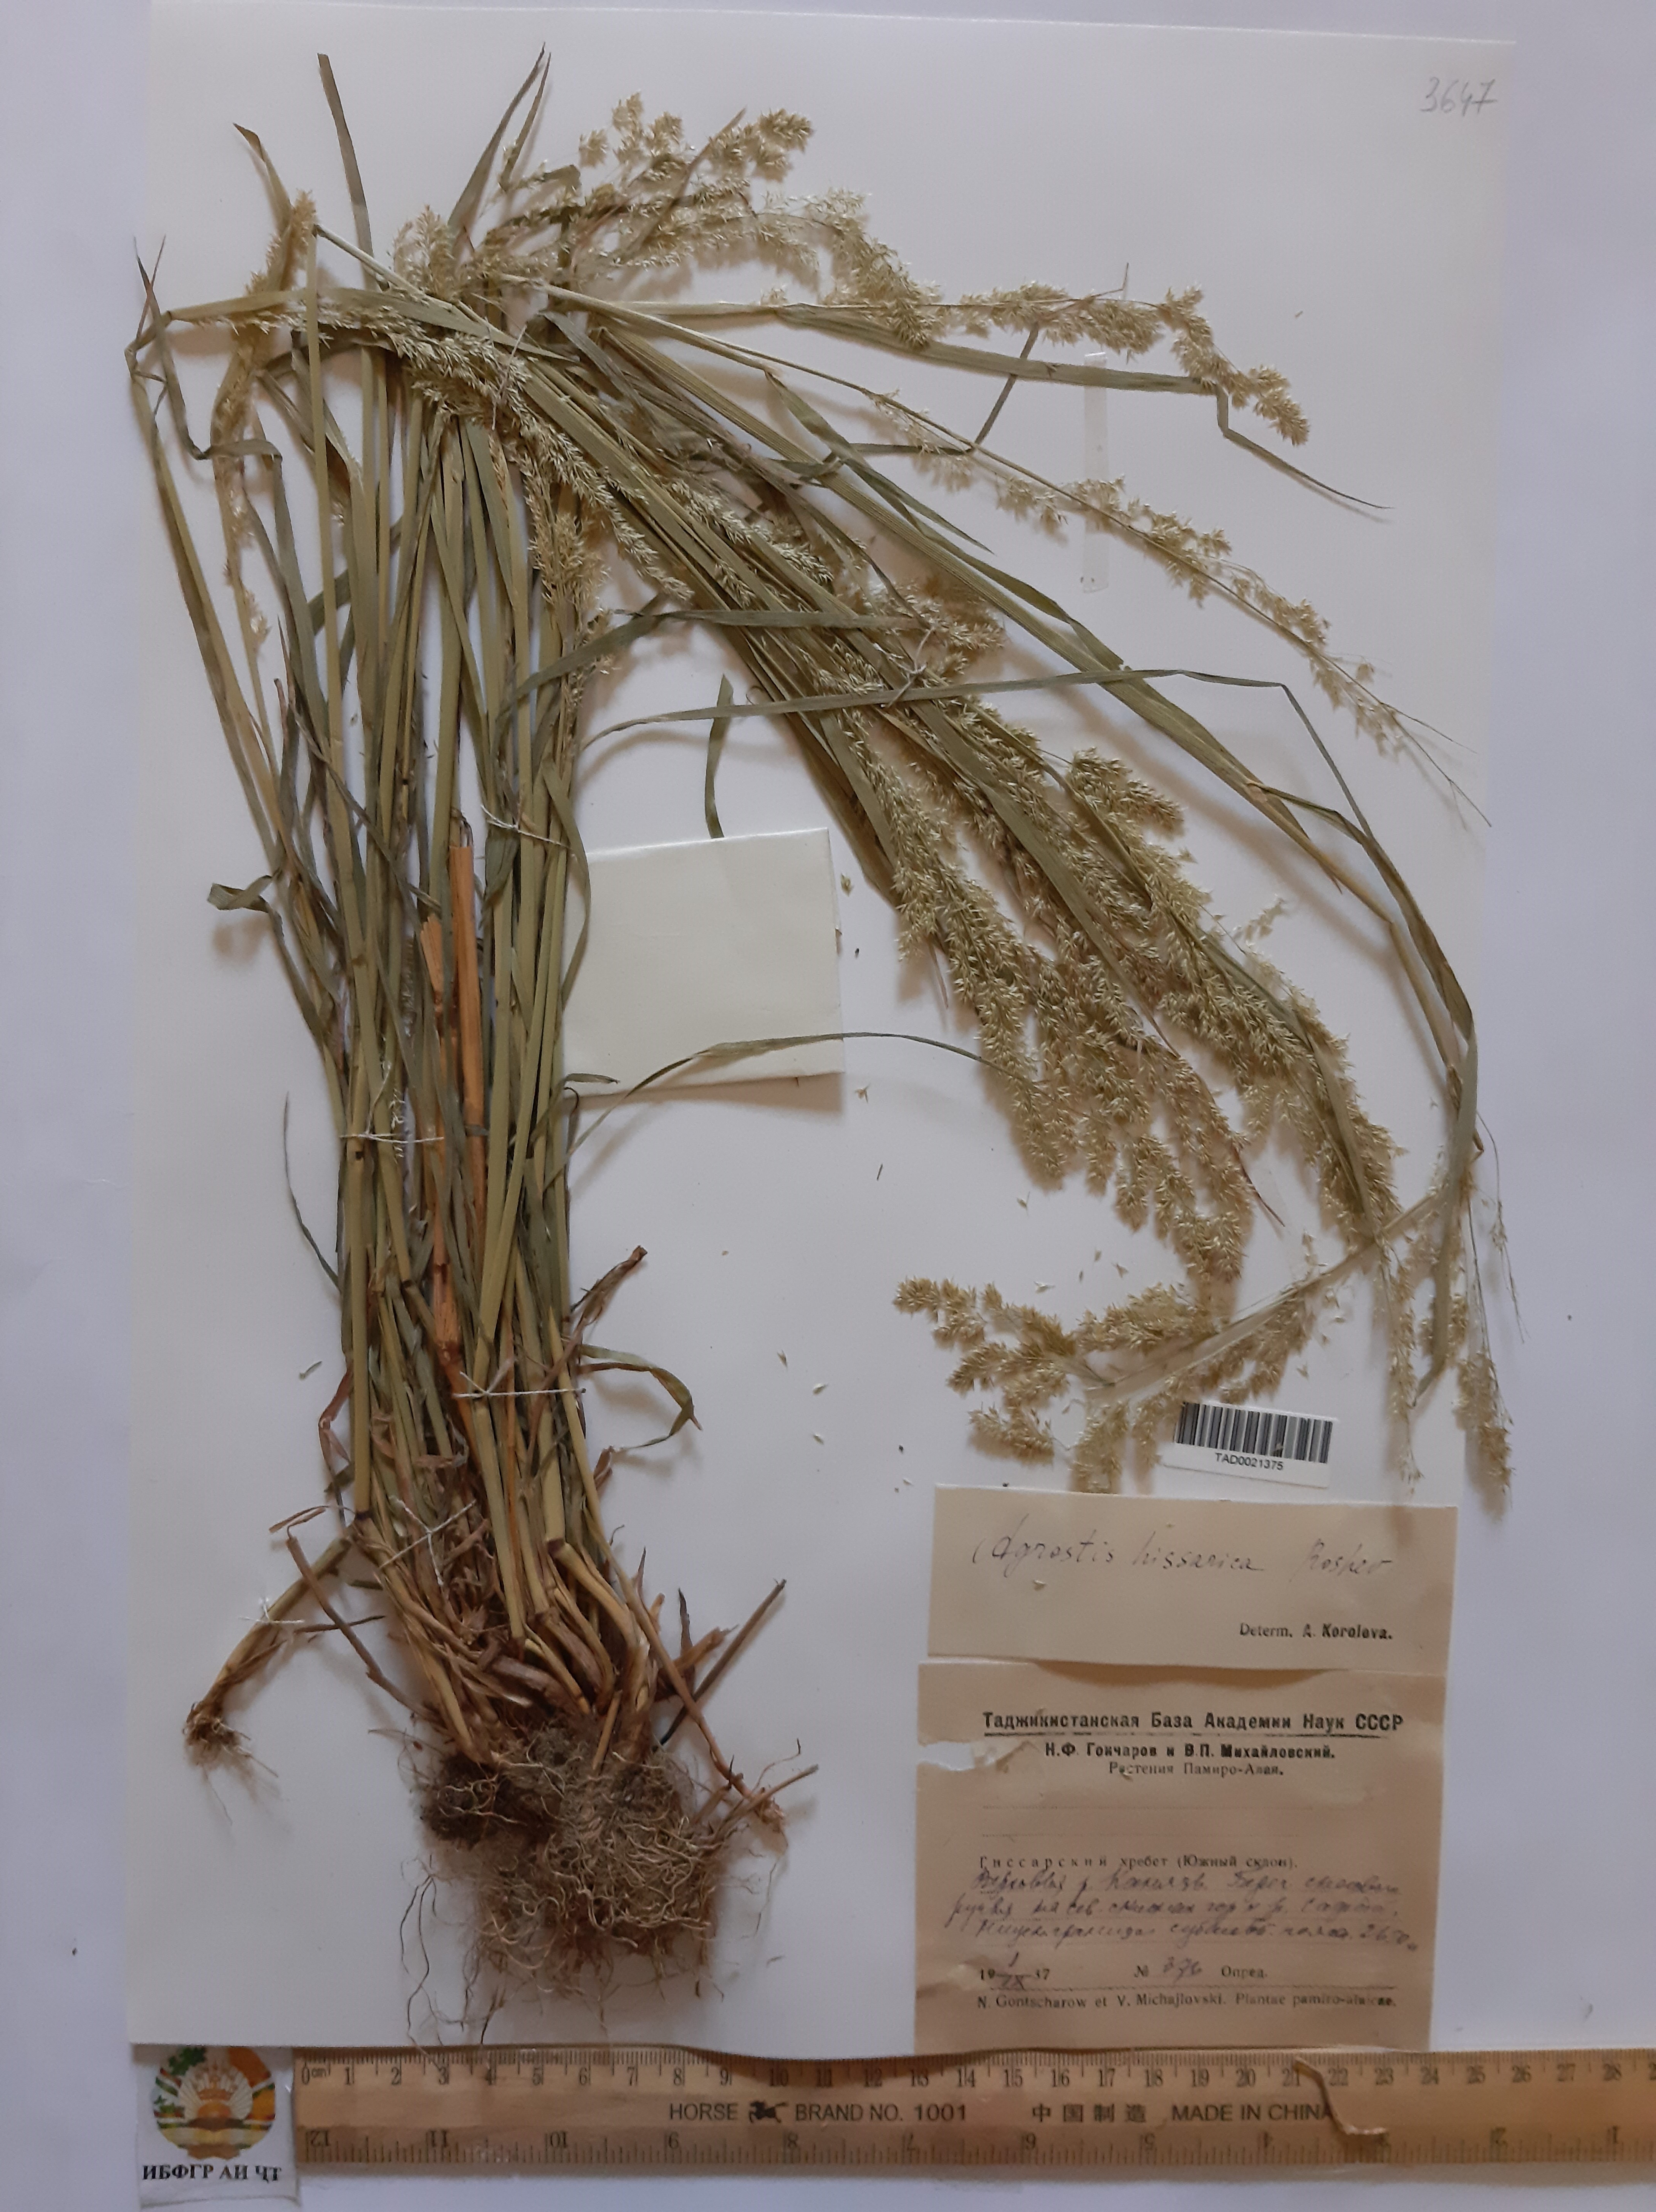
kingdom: Plantae
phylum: Tracheophyta
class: Liliopsida
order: Poales
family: Poaceae
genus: Polypogon
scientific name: Polypogon hissaricus
